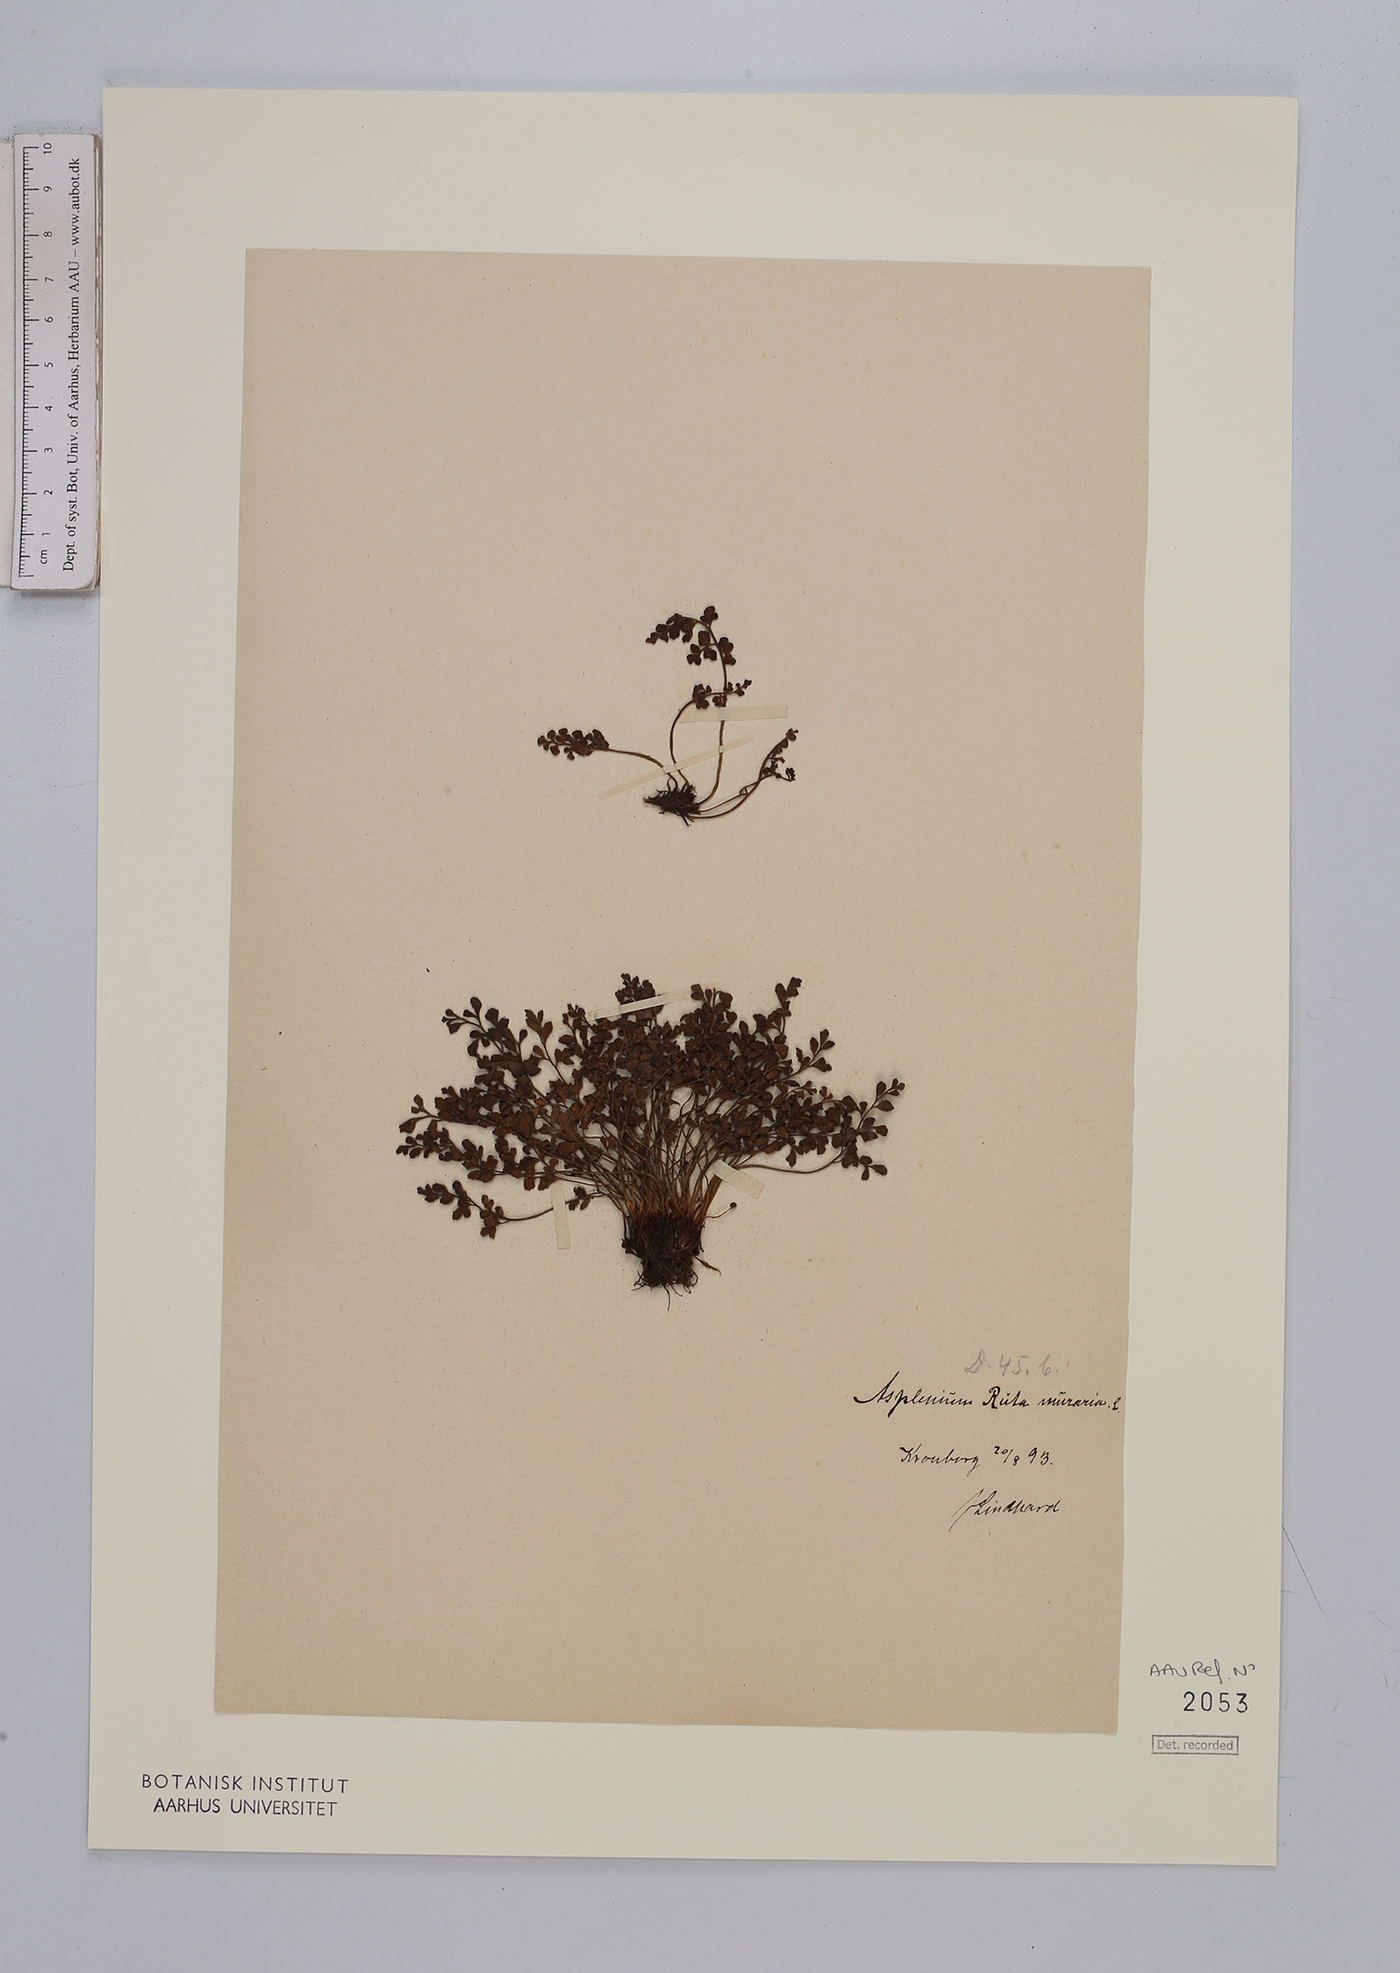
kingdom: Plantae
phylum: Tracheophyta
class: Polypodiopsida
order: Polypodiales
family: Aspleniaceae
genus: Asplenium
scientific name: Asplenium ruta-muraria
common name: Wall-rue
